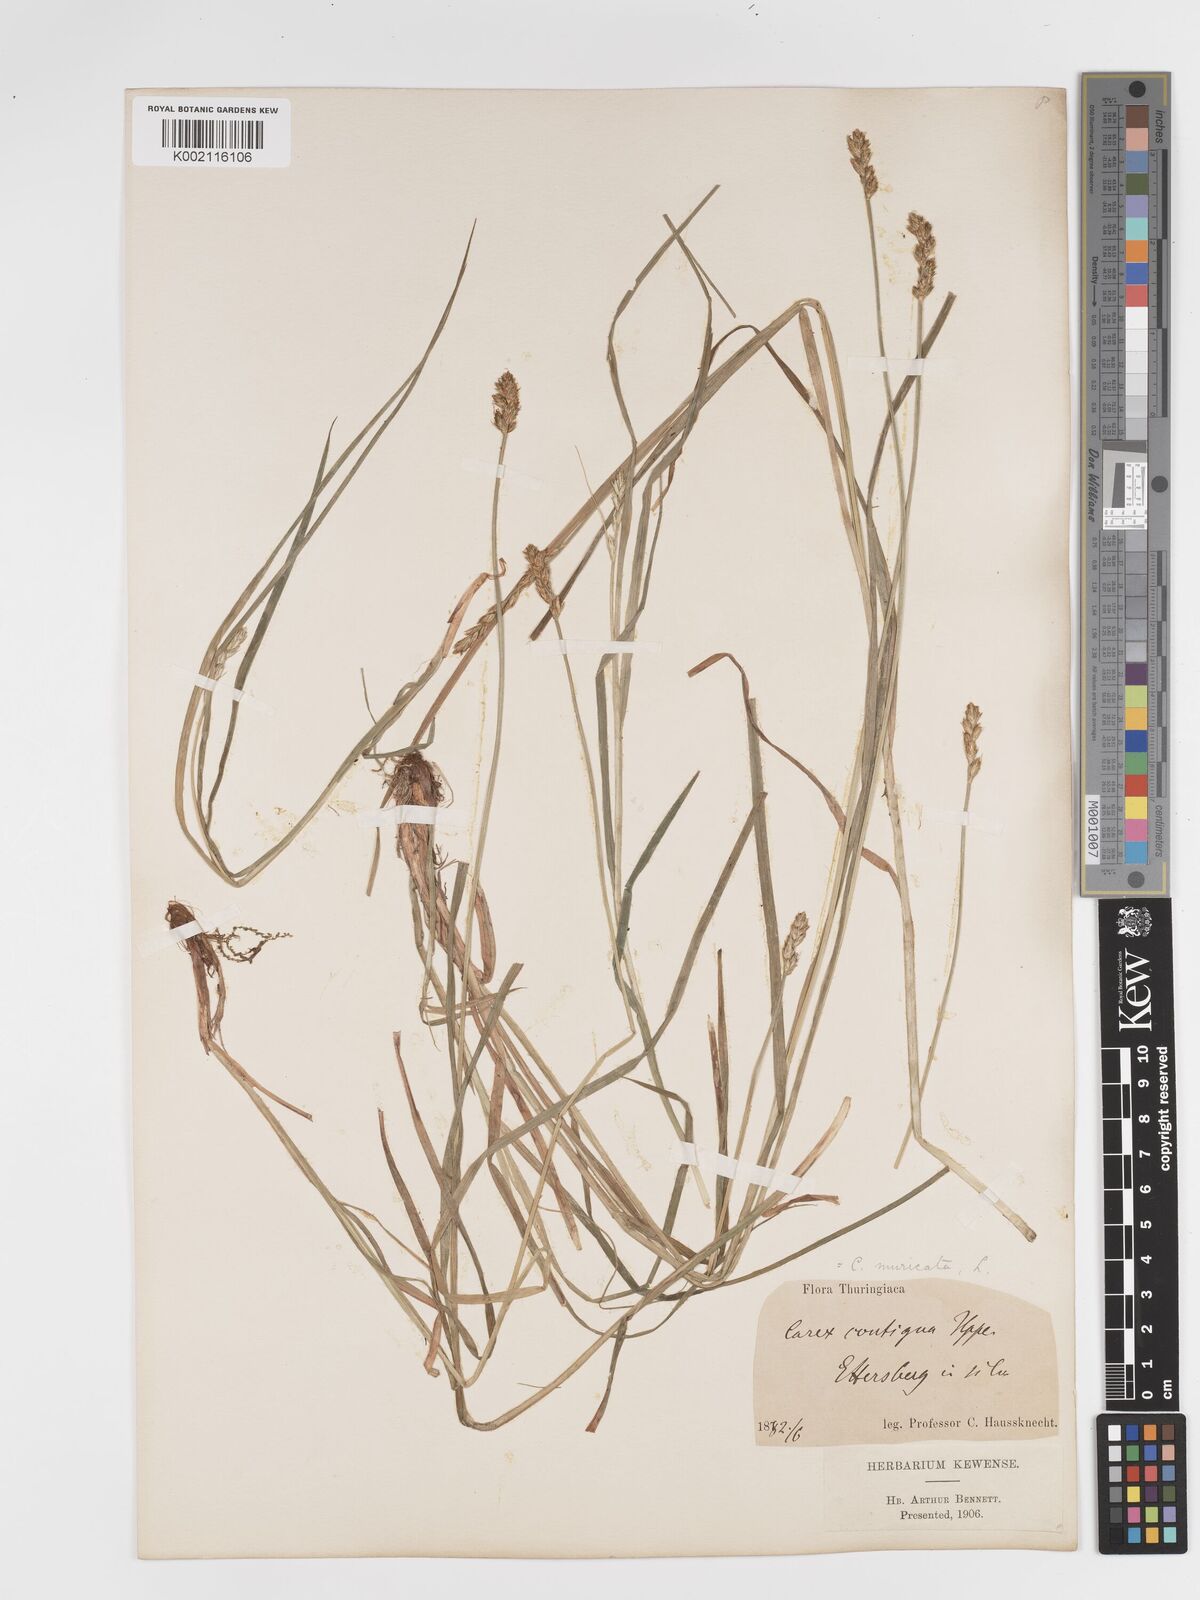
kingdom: Plantae
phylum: Tracheophyta
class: Liliopsida
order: Poales
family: Cyperaceae
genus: Carex
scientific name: Carex spicata
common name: Spiked sedge
